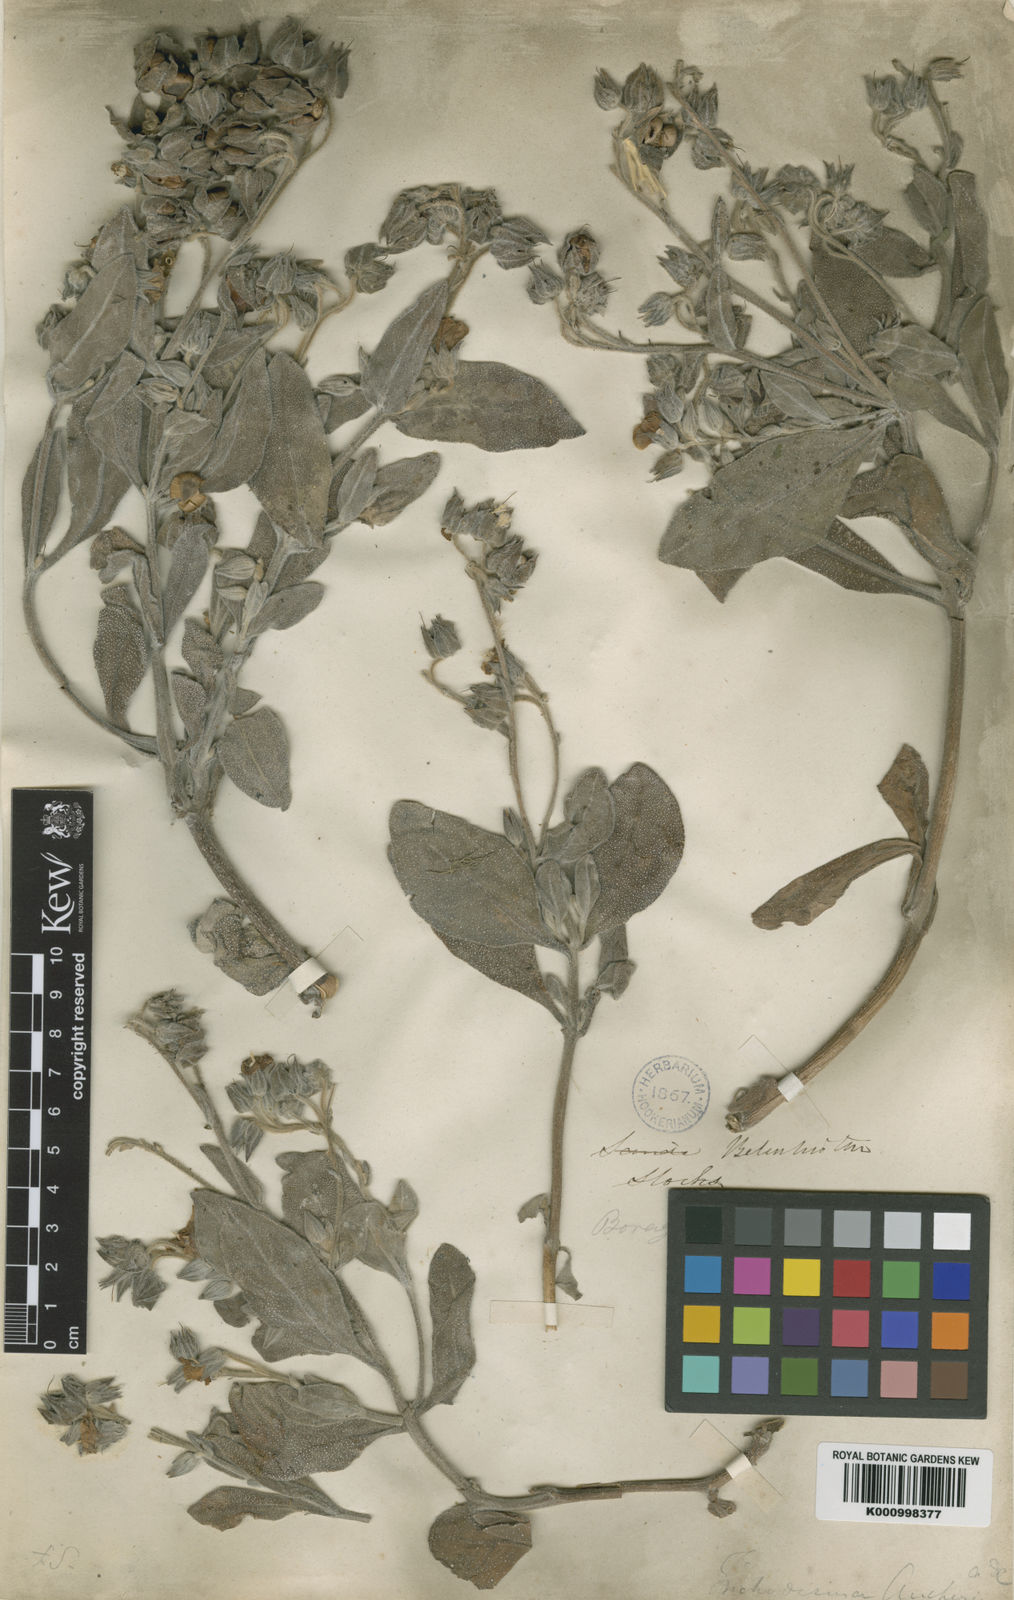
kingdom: Plantae
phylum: Tracheophyta
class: Magnoliopsida
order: Boraginales
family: Boraginaceae
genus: Trichodesma
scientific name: Trichodesma stocksii
